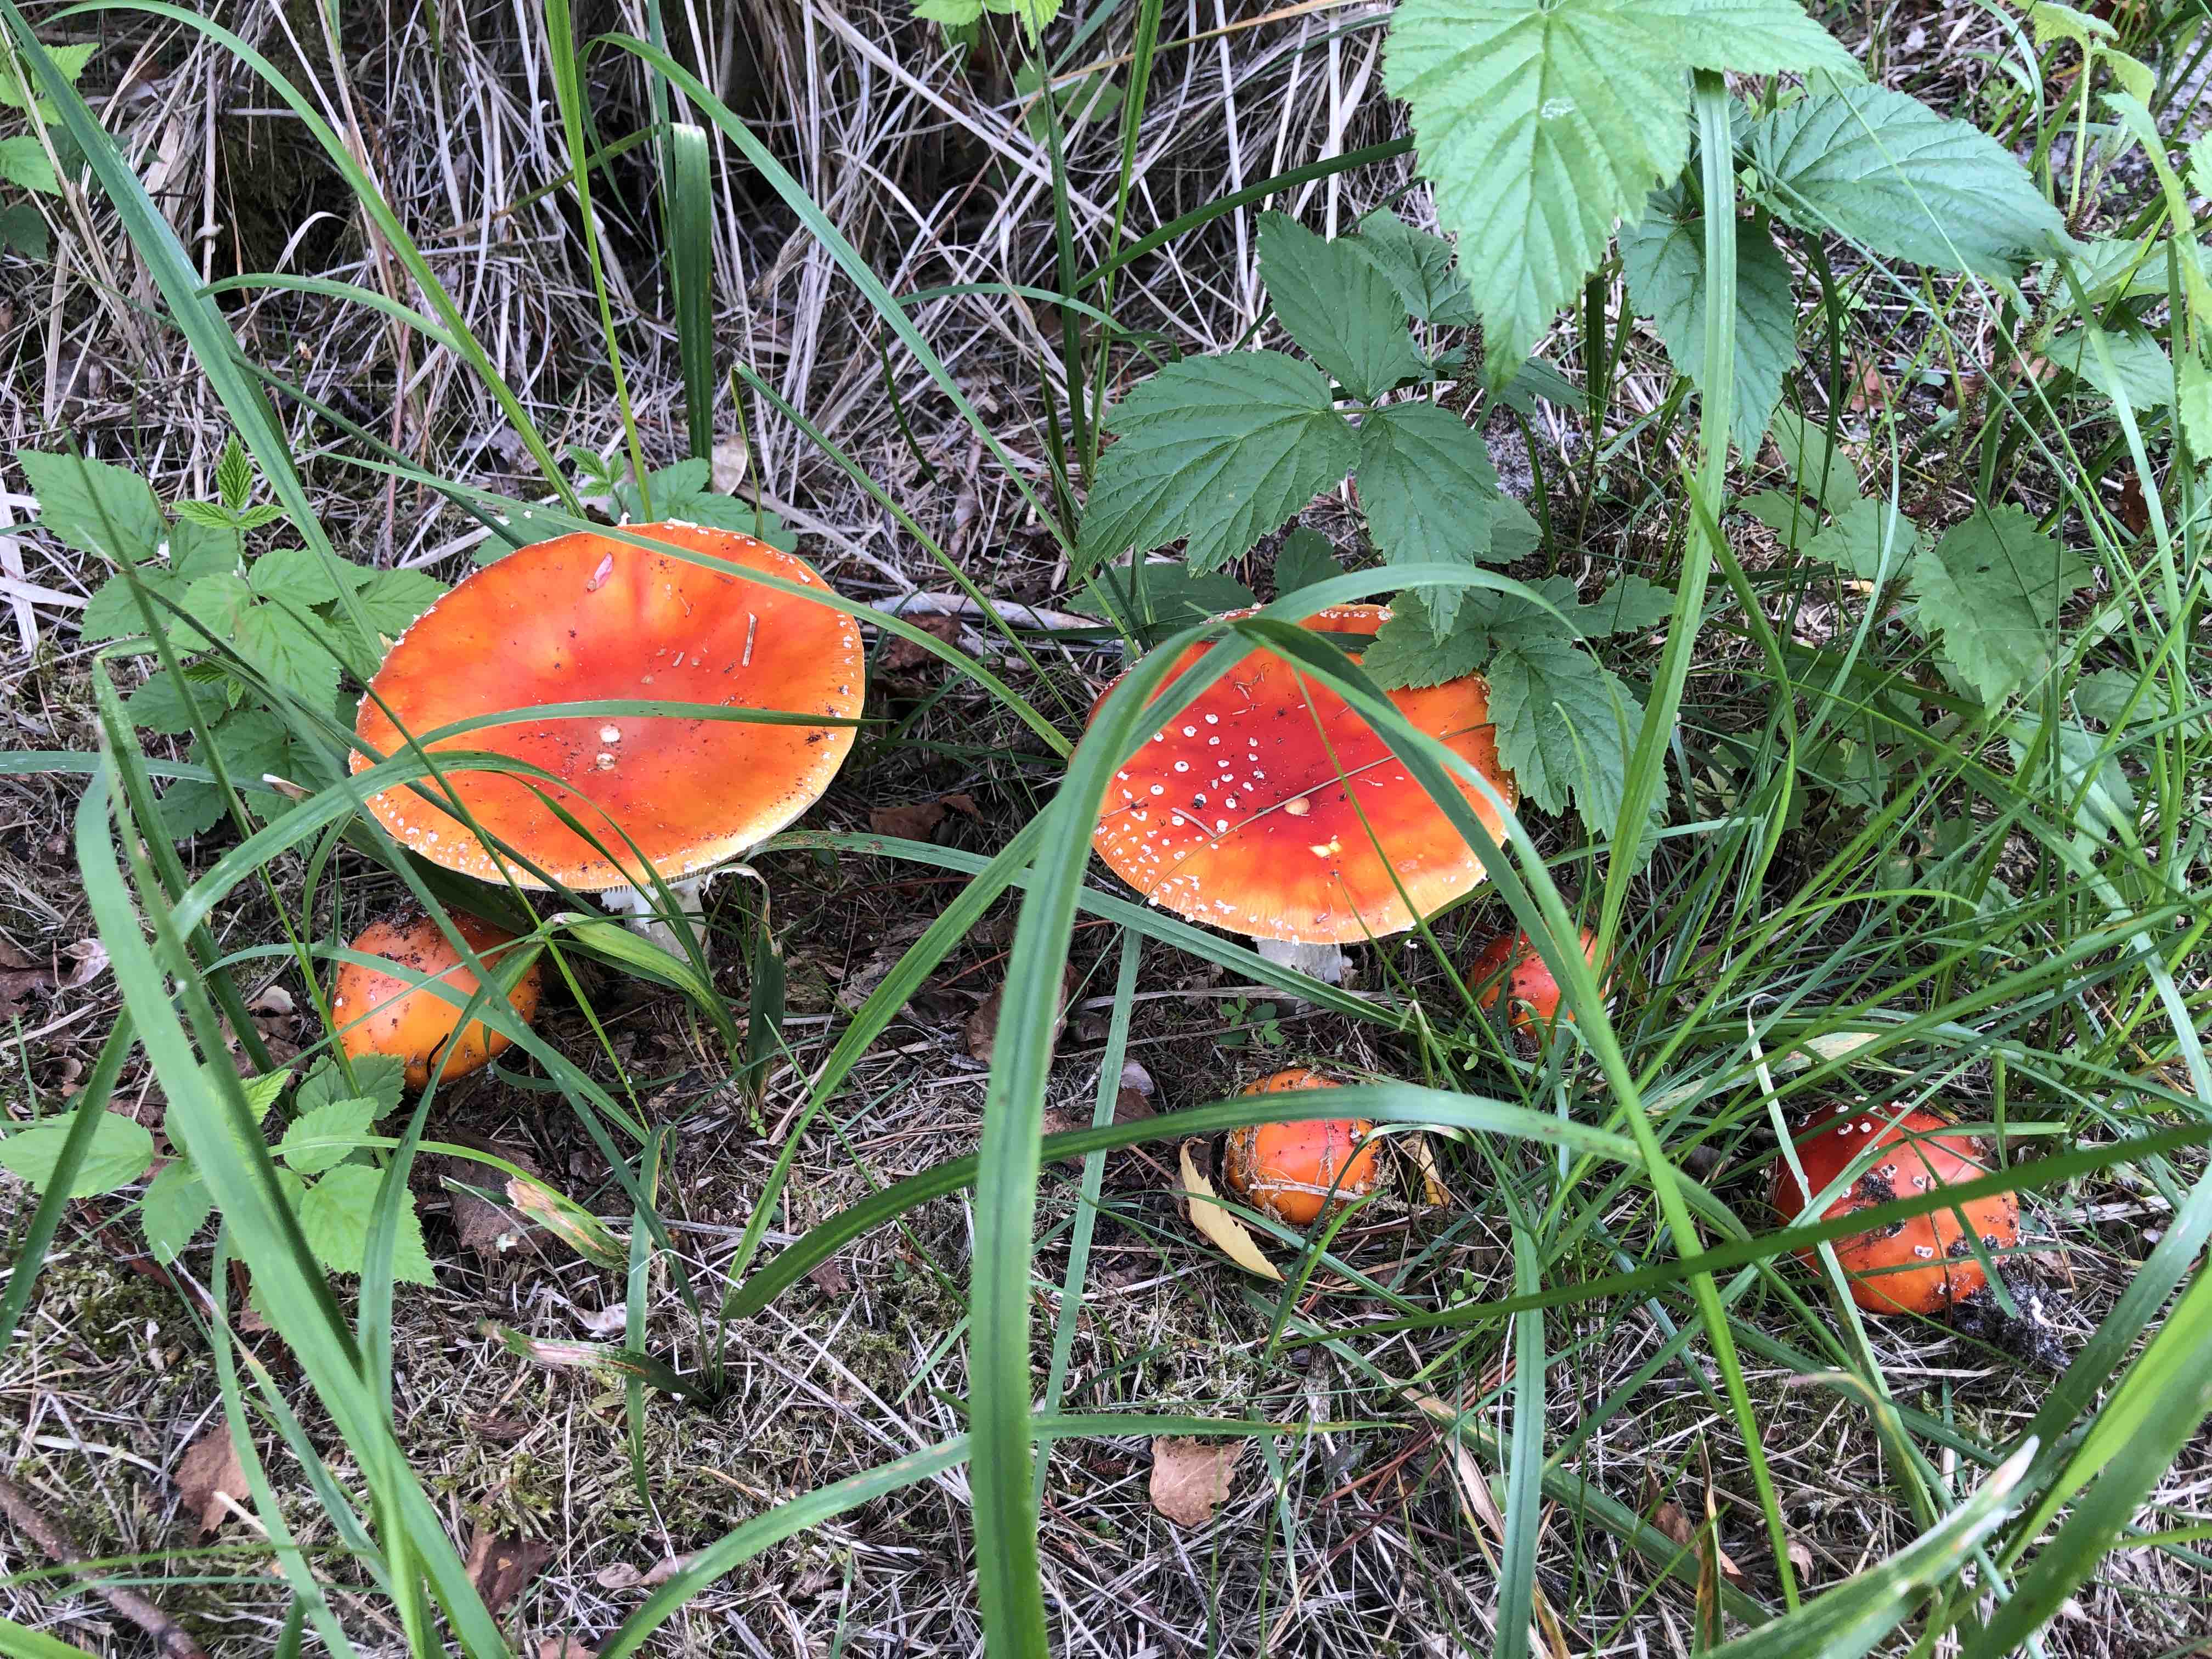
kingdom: Fungi
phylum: Basidiomycota
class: Agaricomycetes
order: Agaricales
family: Amanitaceae
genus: Amanita
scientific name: Amanita muscaria
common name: rød fluesvamp
